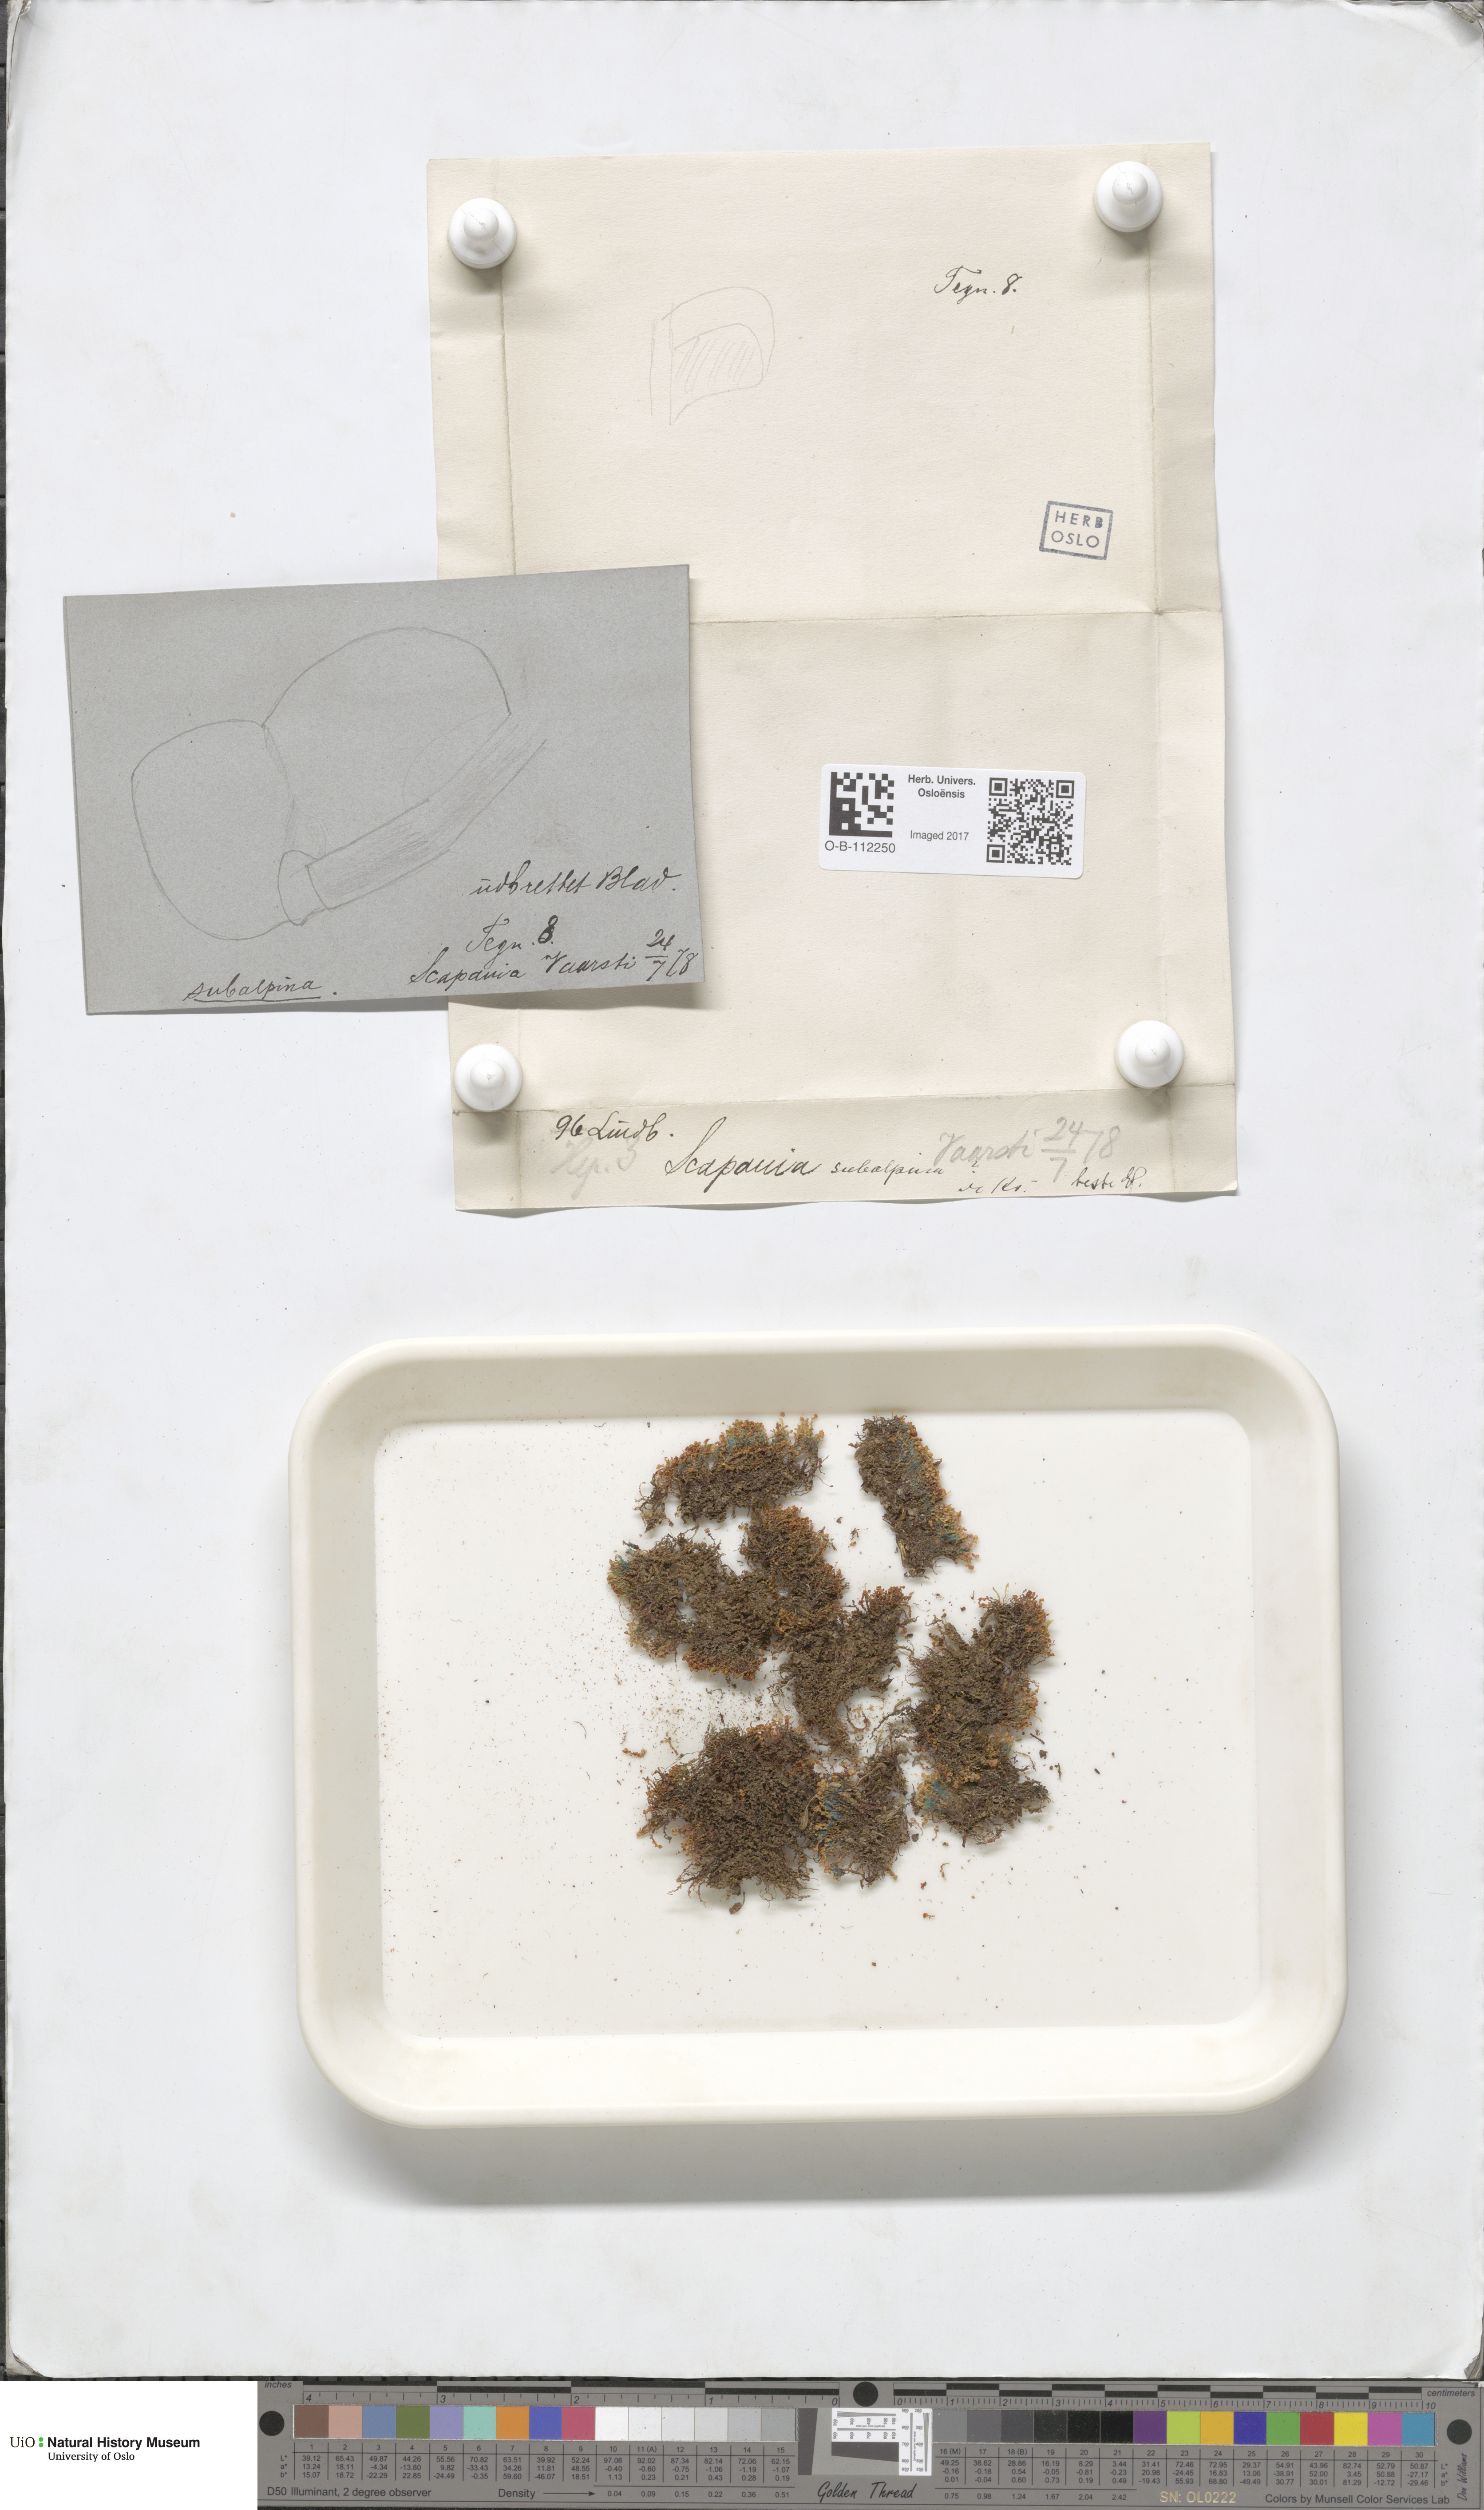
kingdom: Plantae
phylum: Marchantiophyta
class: Jungermanniopsida
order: Jungermanniales
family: Scapaniaceae
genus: Scapania
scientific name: Scapania subalpina
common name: Subalpine earwort
